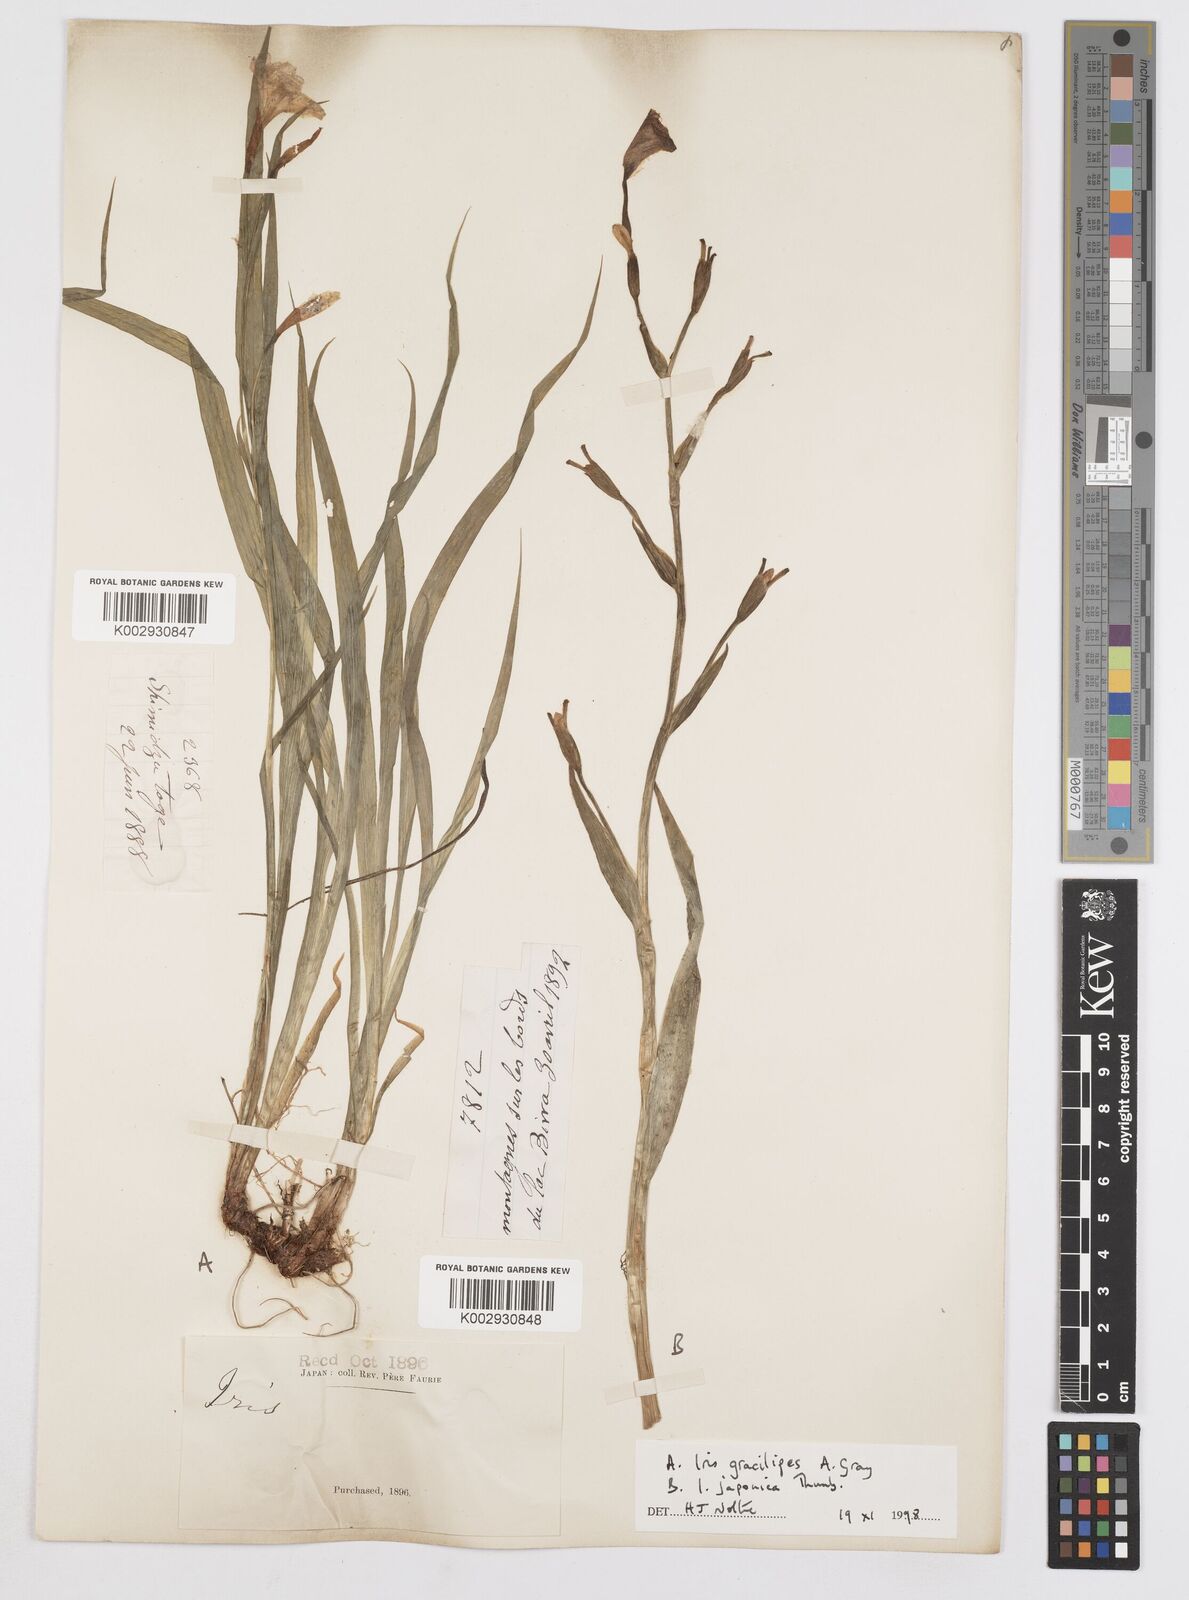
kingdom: Plantae
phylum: Tracheophyta
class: Liliopsida
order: Asparagales
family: Iridaceae
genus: Iris
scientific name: Iris gracilipes
